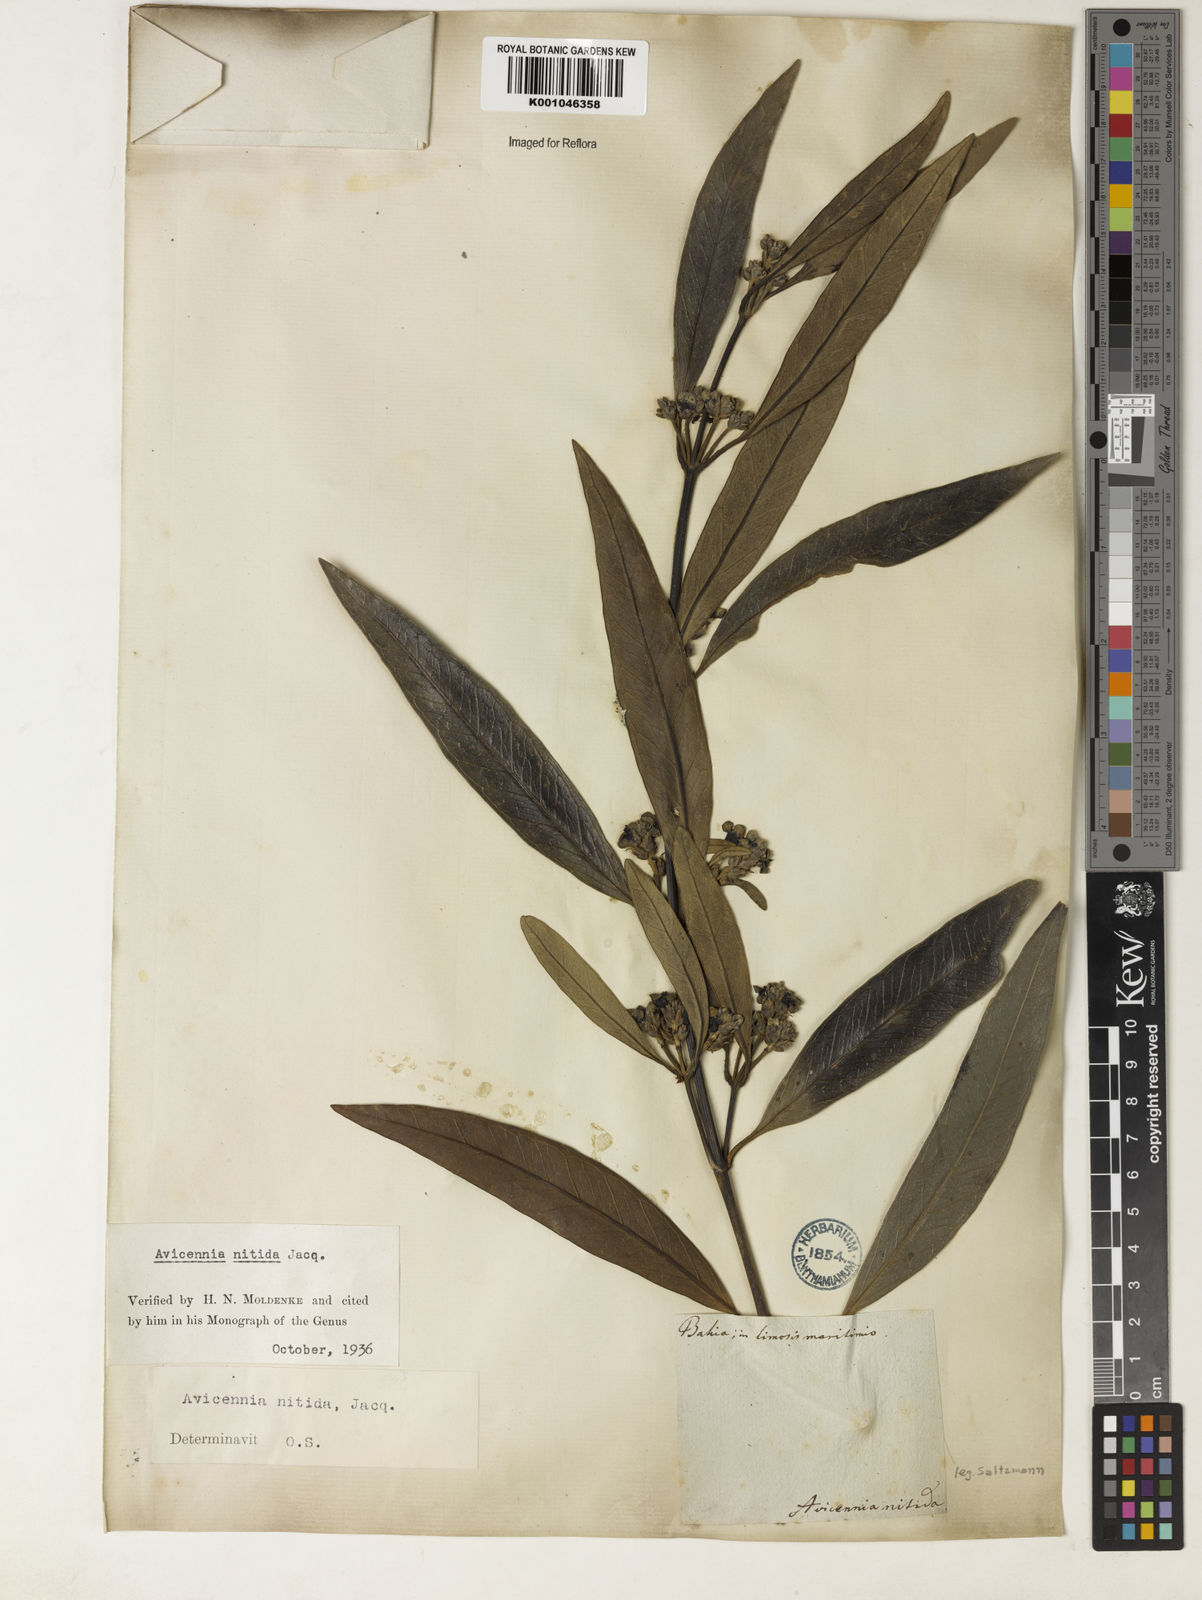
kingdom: Plantae
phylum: Tracheophyta
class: Magnoliopsida
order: Lamiales
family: Acanthaceae
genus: Avicennia
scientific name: Avicennia germinans
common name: Black mangrove
